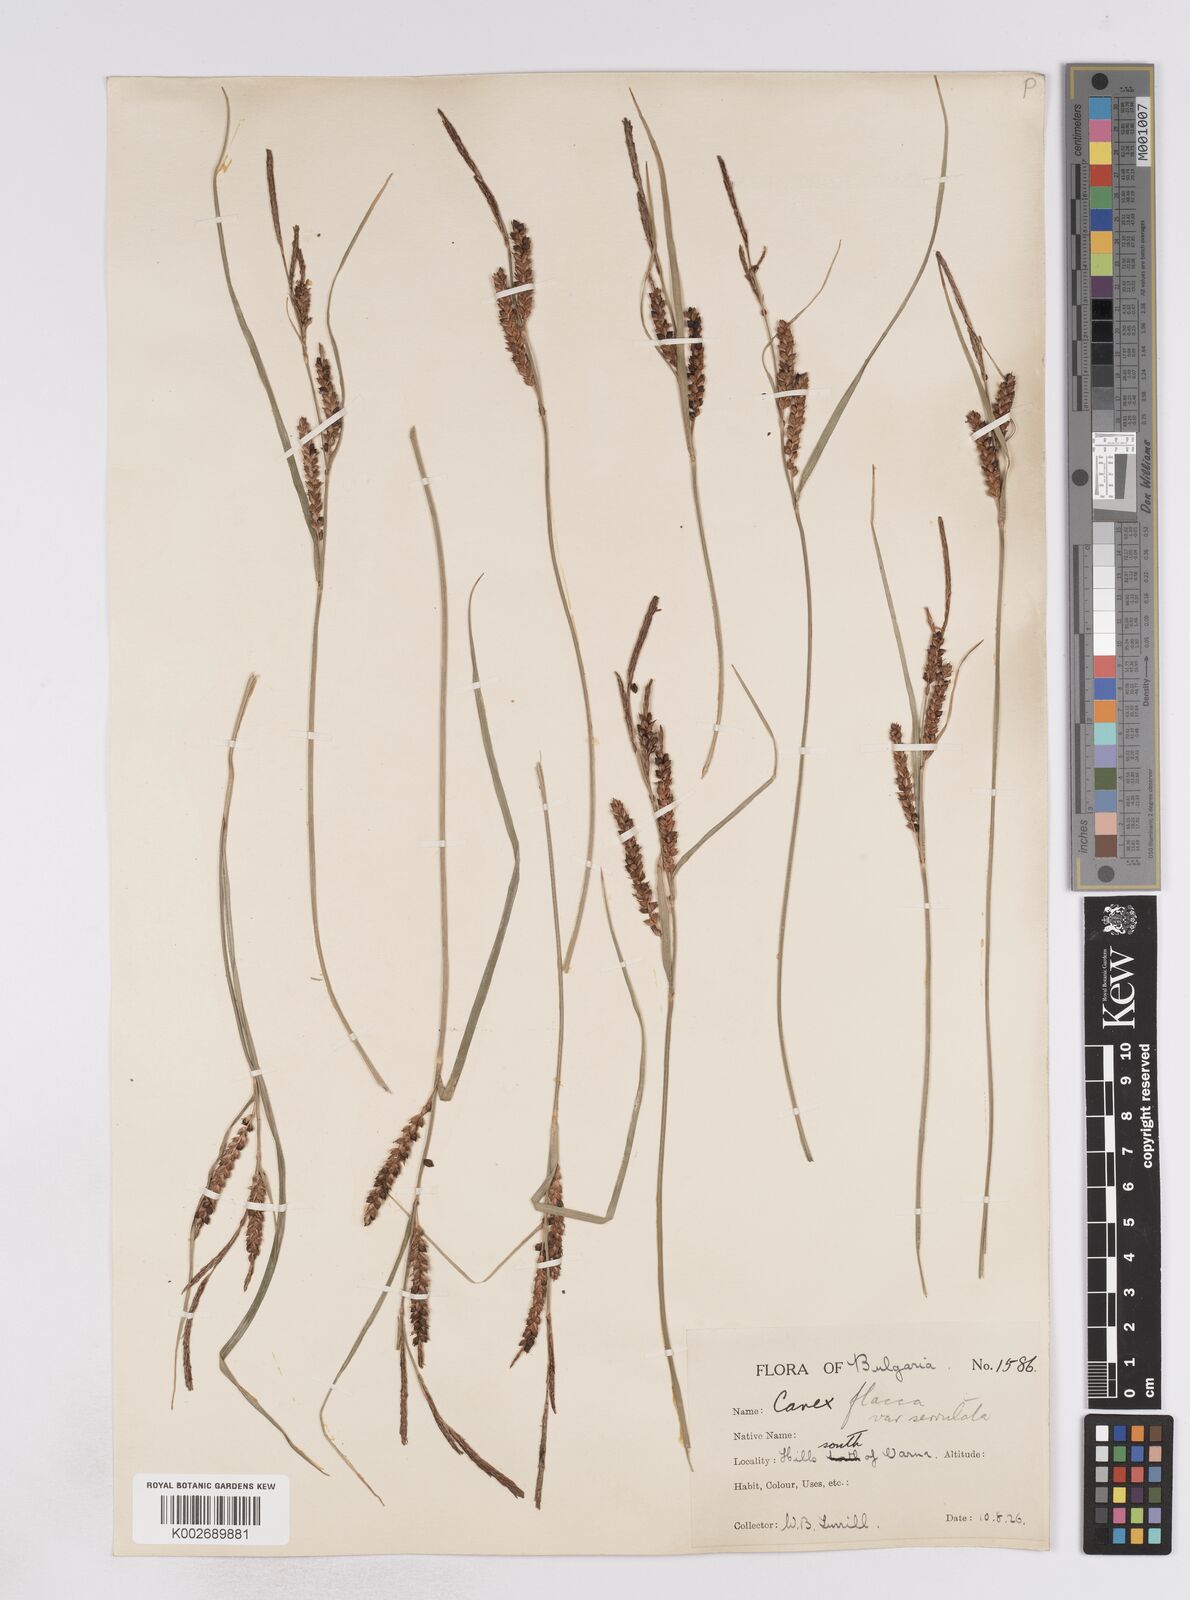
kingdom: Plantae
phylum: Tracheophyta
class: Liliopsida
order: Poales
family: Cyperaceae
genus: Carex
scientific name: Carex flacca
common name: Glaucous sedge
